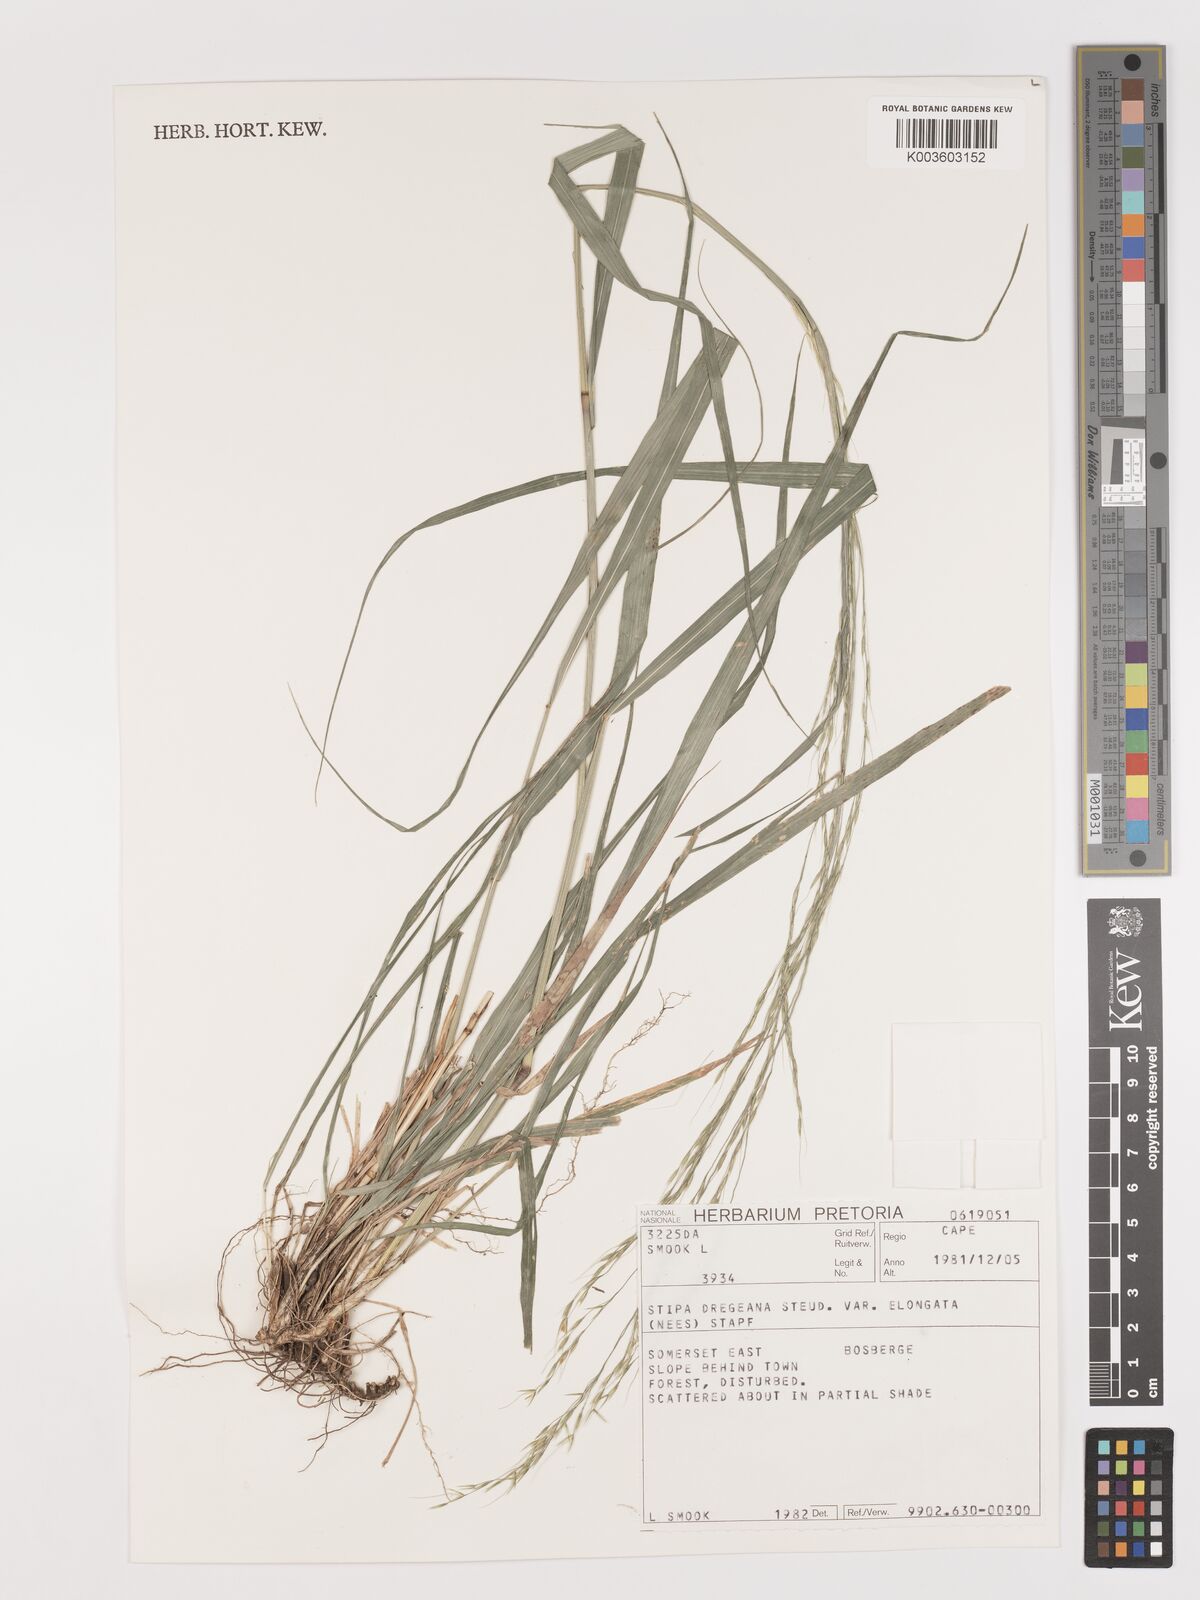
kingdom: Plantae
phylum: Tracheophyta
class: Liliopsida
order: Poales
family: Poaceae
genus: Stipa
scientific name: Stipa dregeana
